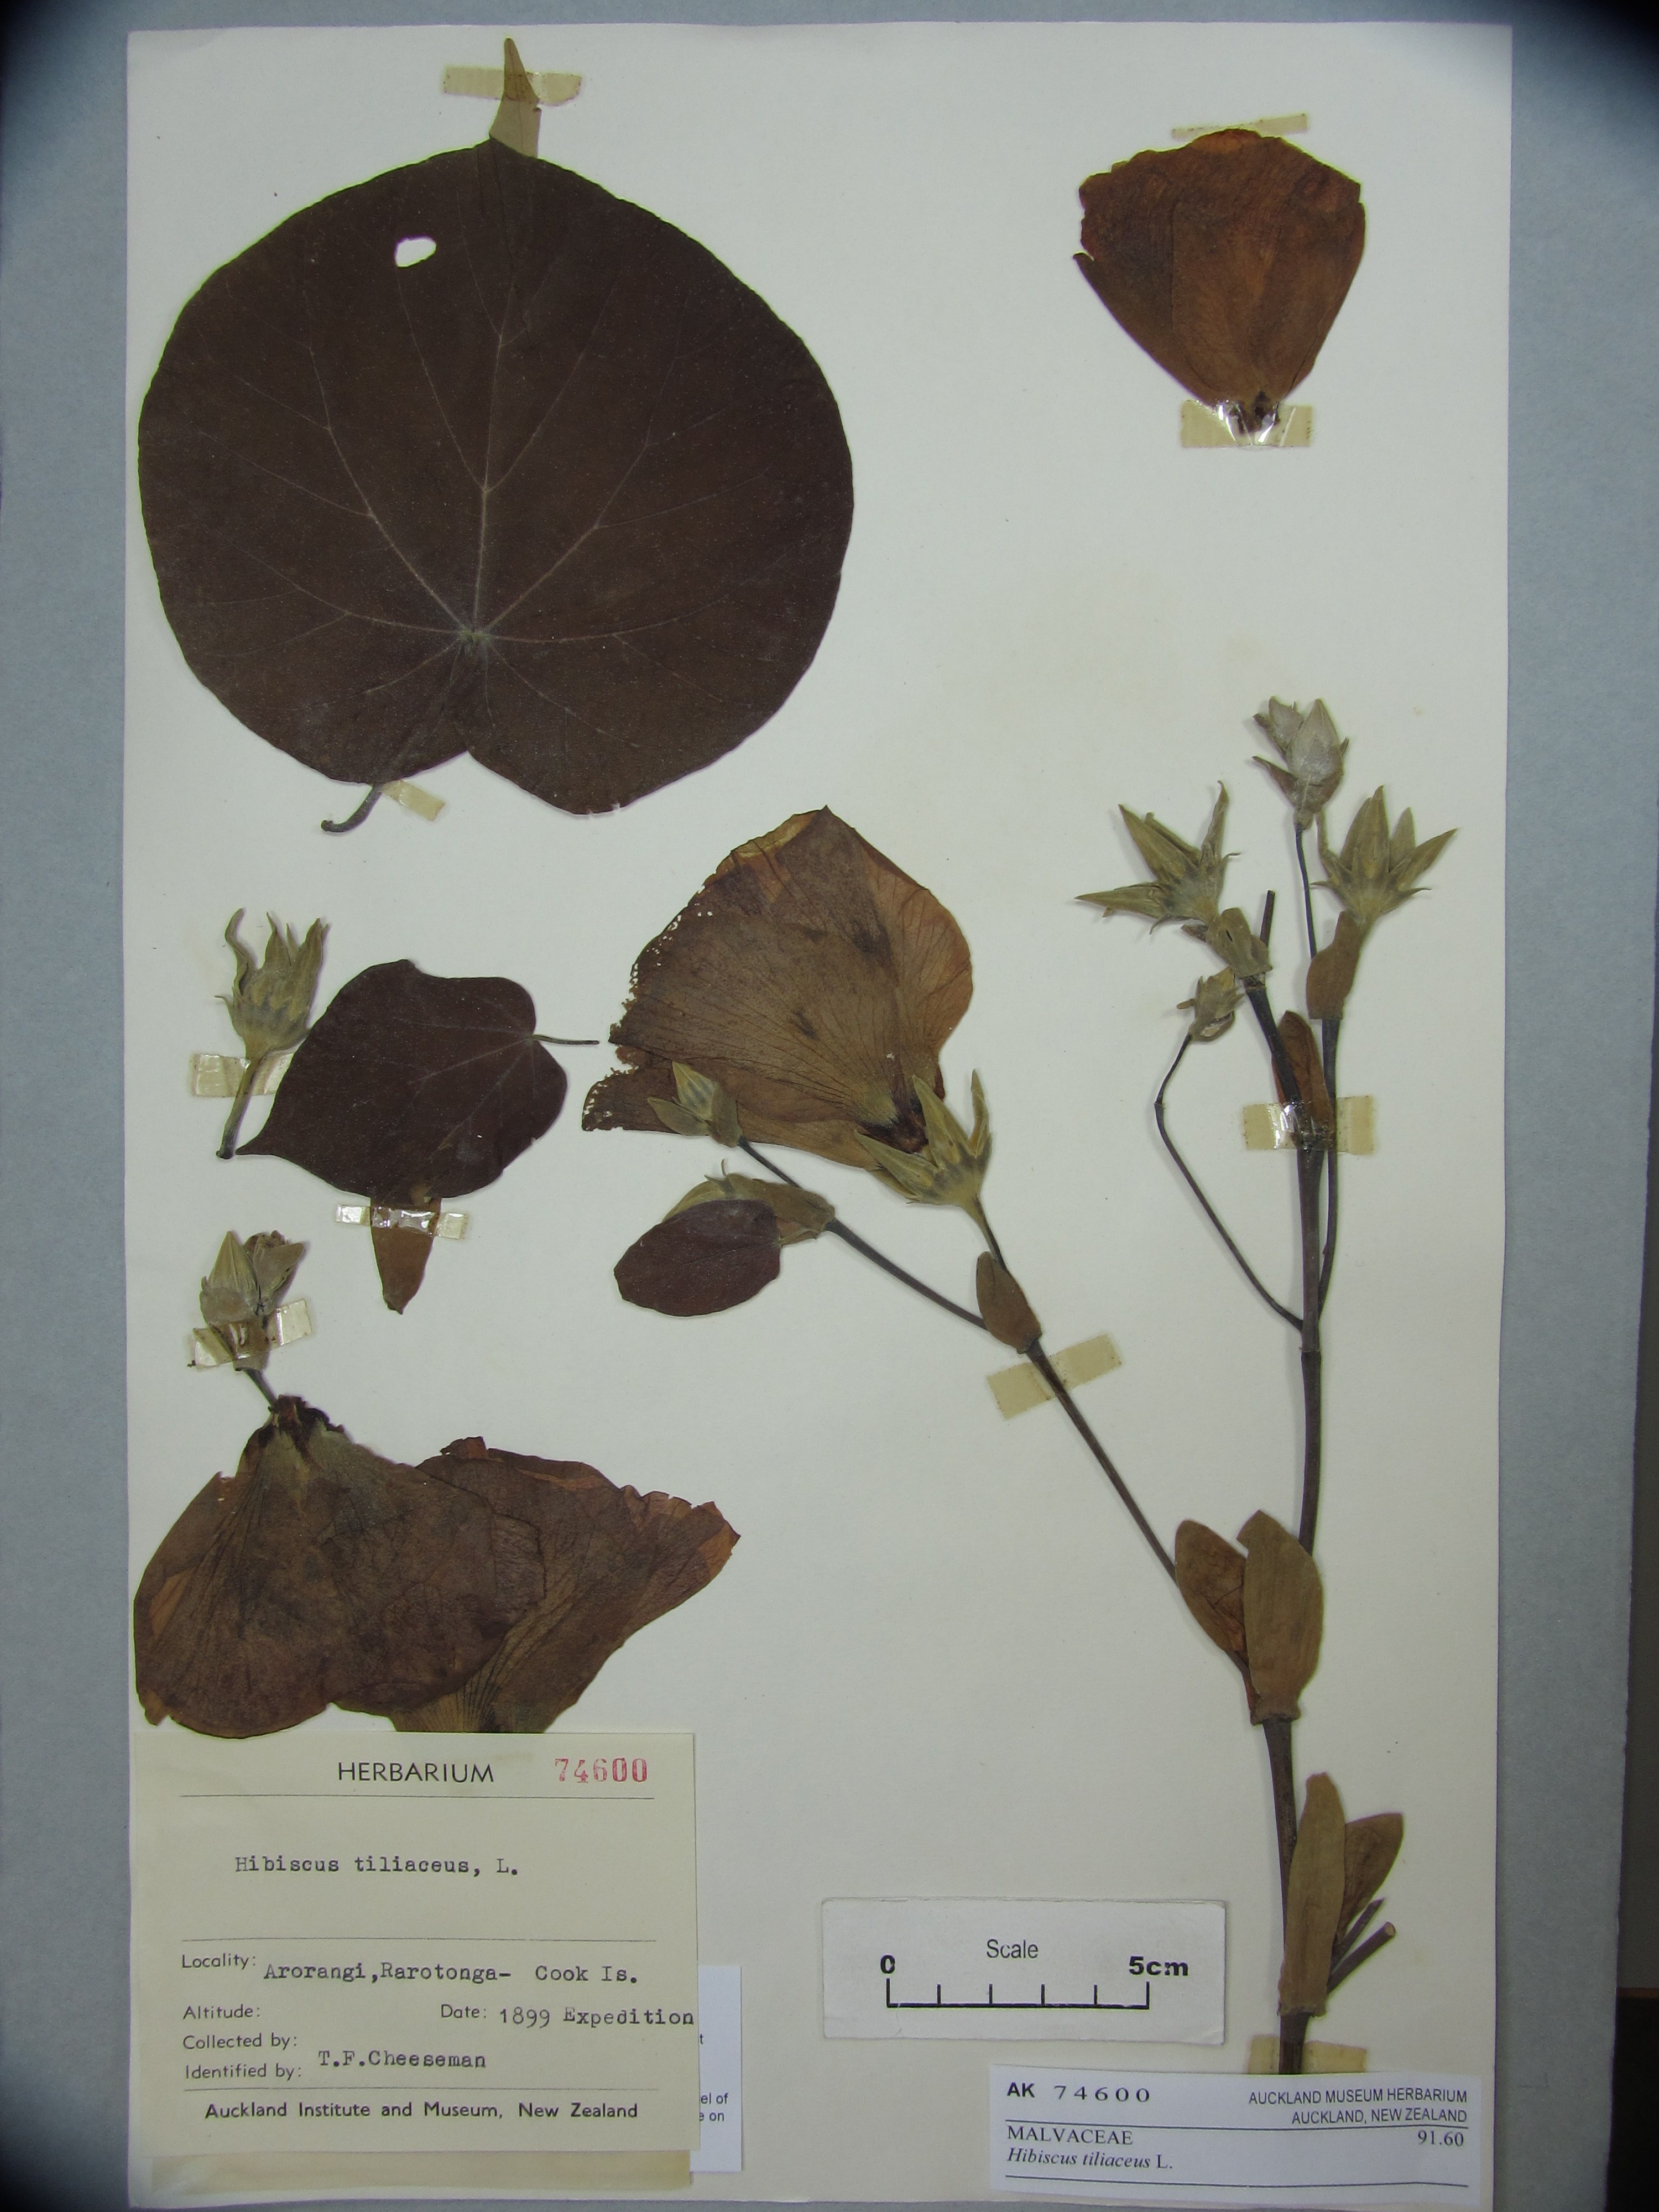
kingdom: Plantae
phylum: Tracheophyta
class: Magnoliopsida
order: Malvales
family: Malvaceae
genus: Talipariti
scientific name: Talipariti tiliaceum
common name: Sea hibiscus
